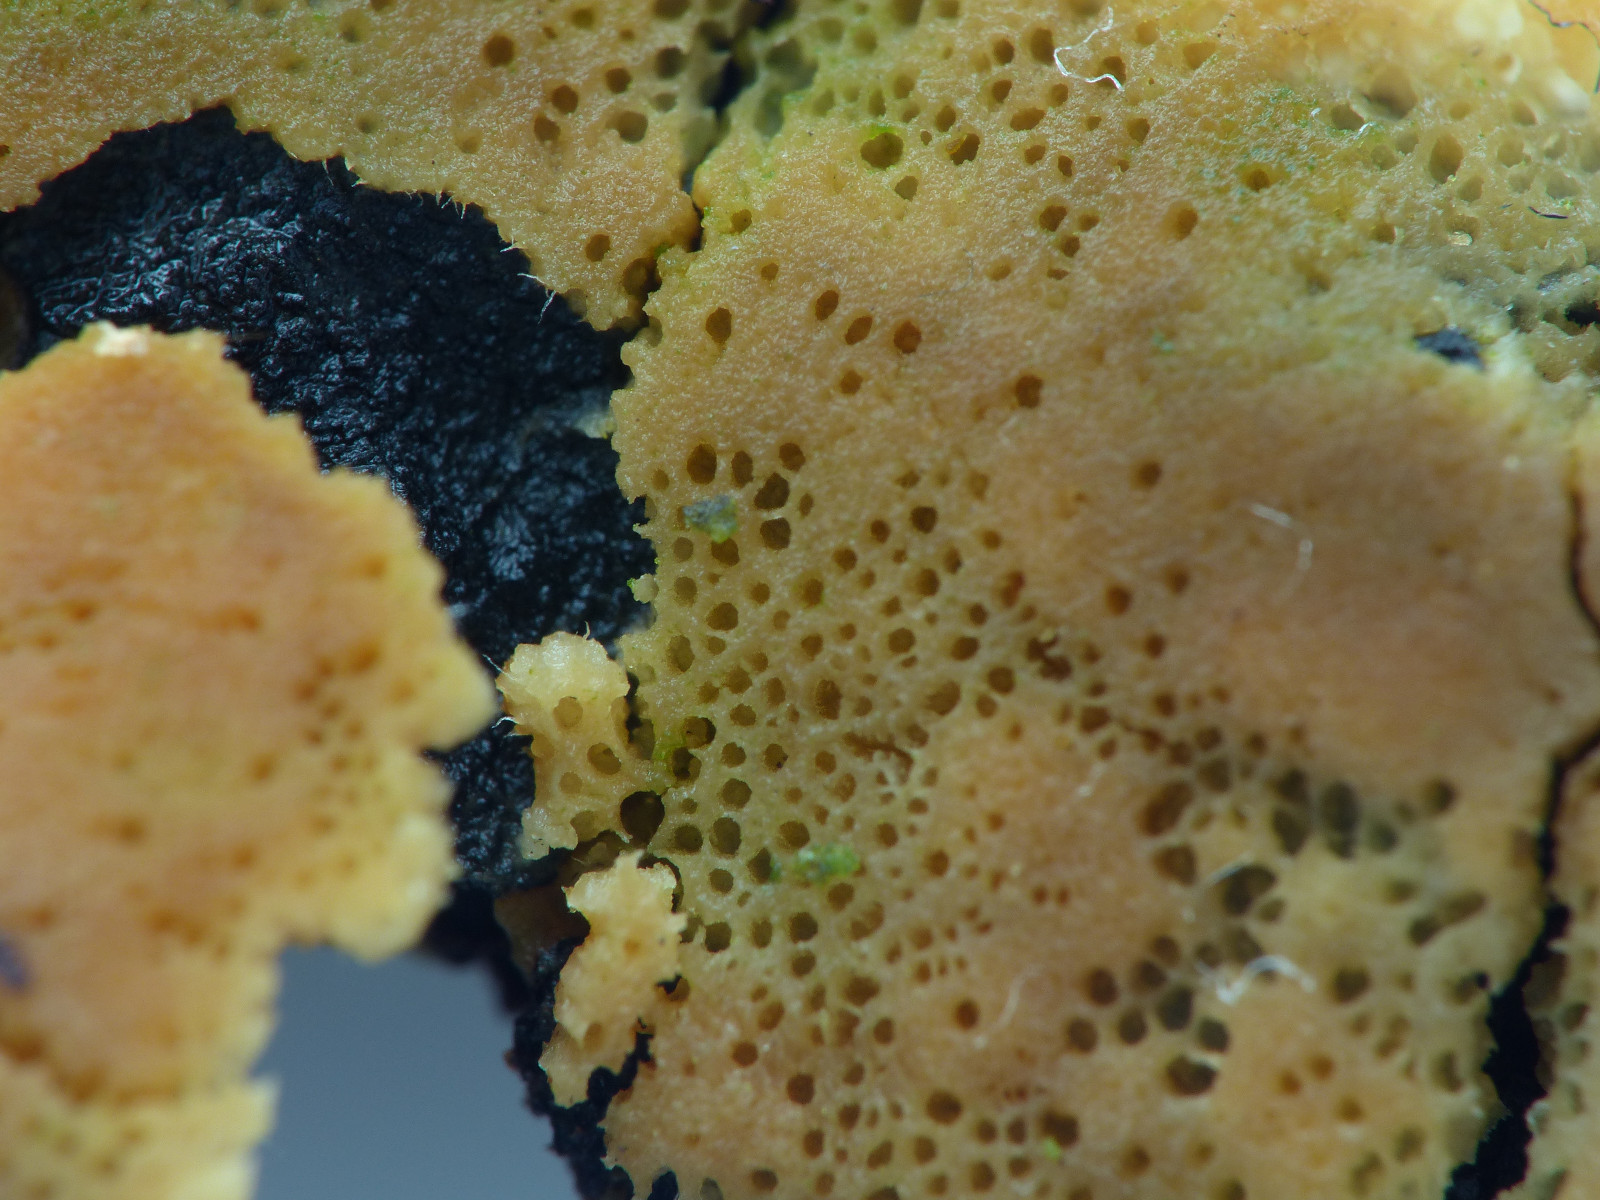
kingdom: Fungi
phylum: Basidiomycota
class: Agaricomycetes
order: Polyporales
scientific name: Polyporales
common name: poresvampordenen
